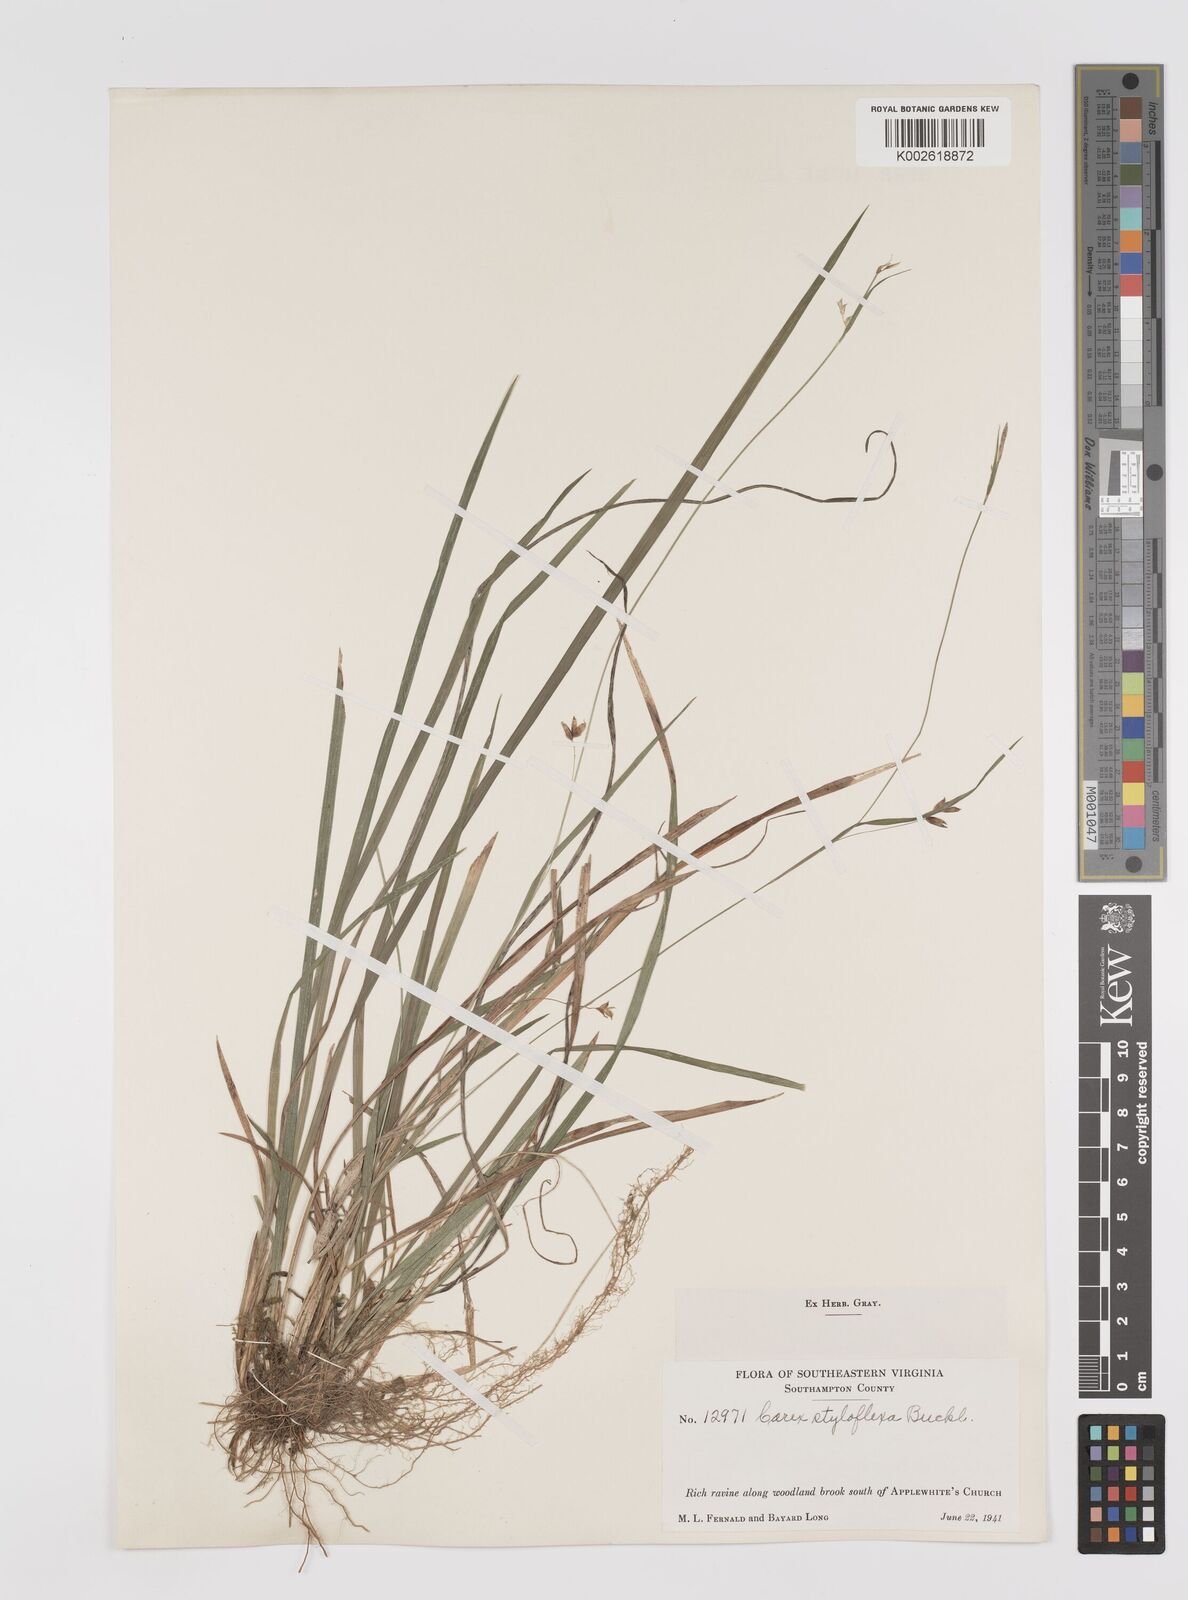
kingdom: Plantae
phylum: Tracheophyta
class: Liliopsida
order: Poales
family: Cyperaceae
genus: Carex
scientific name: Carex styloflexa
